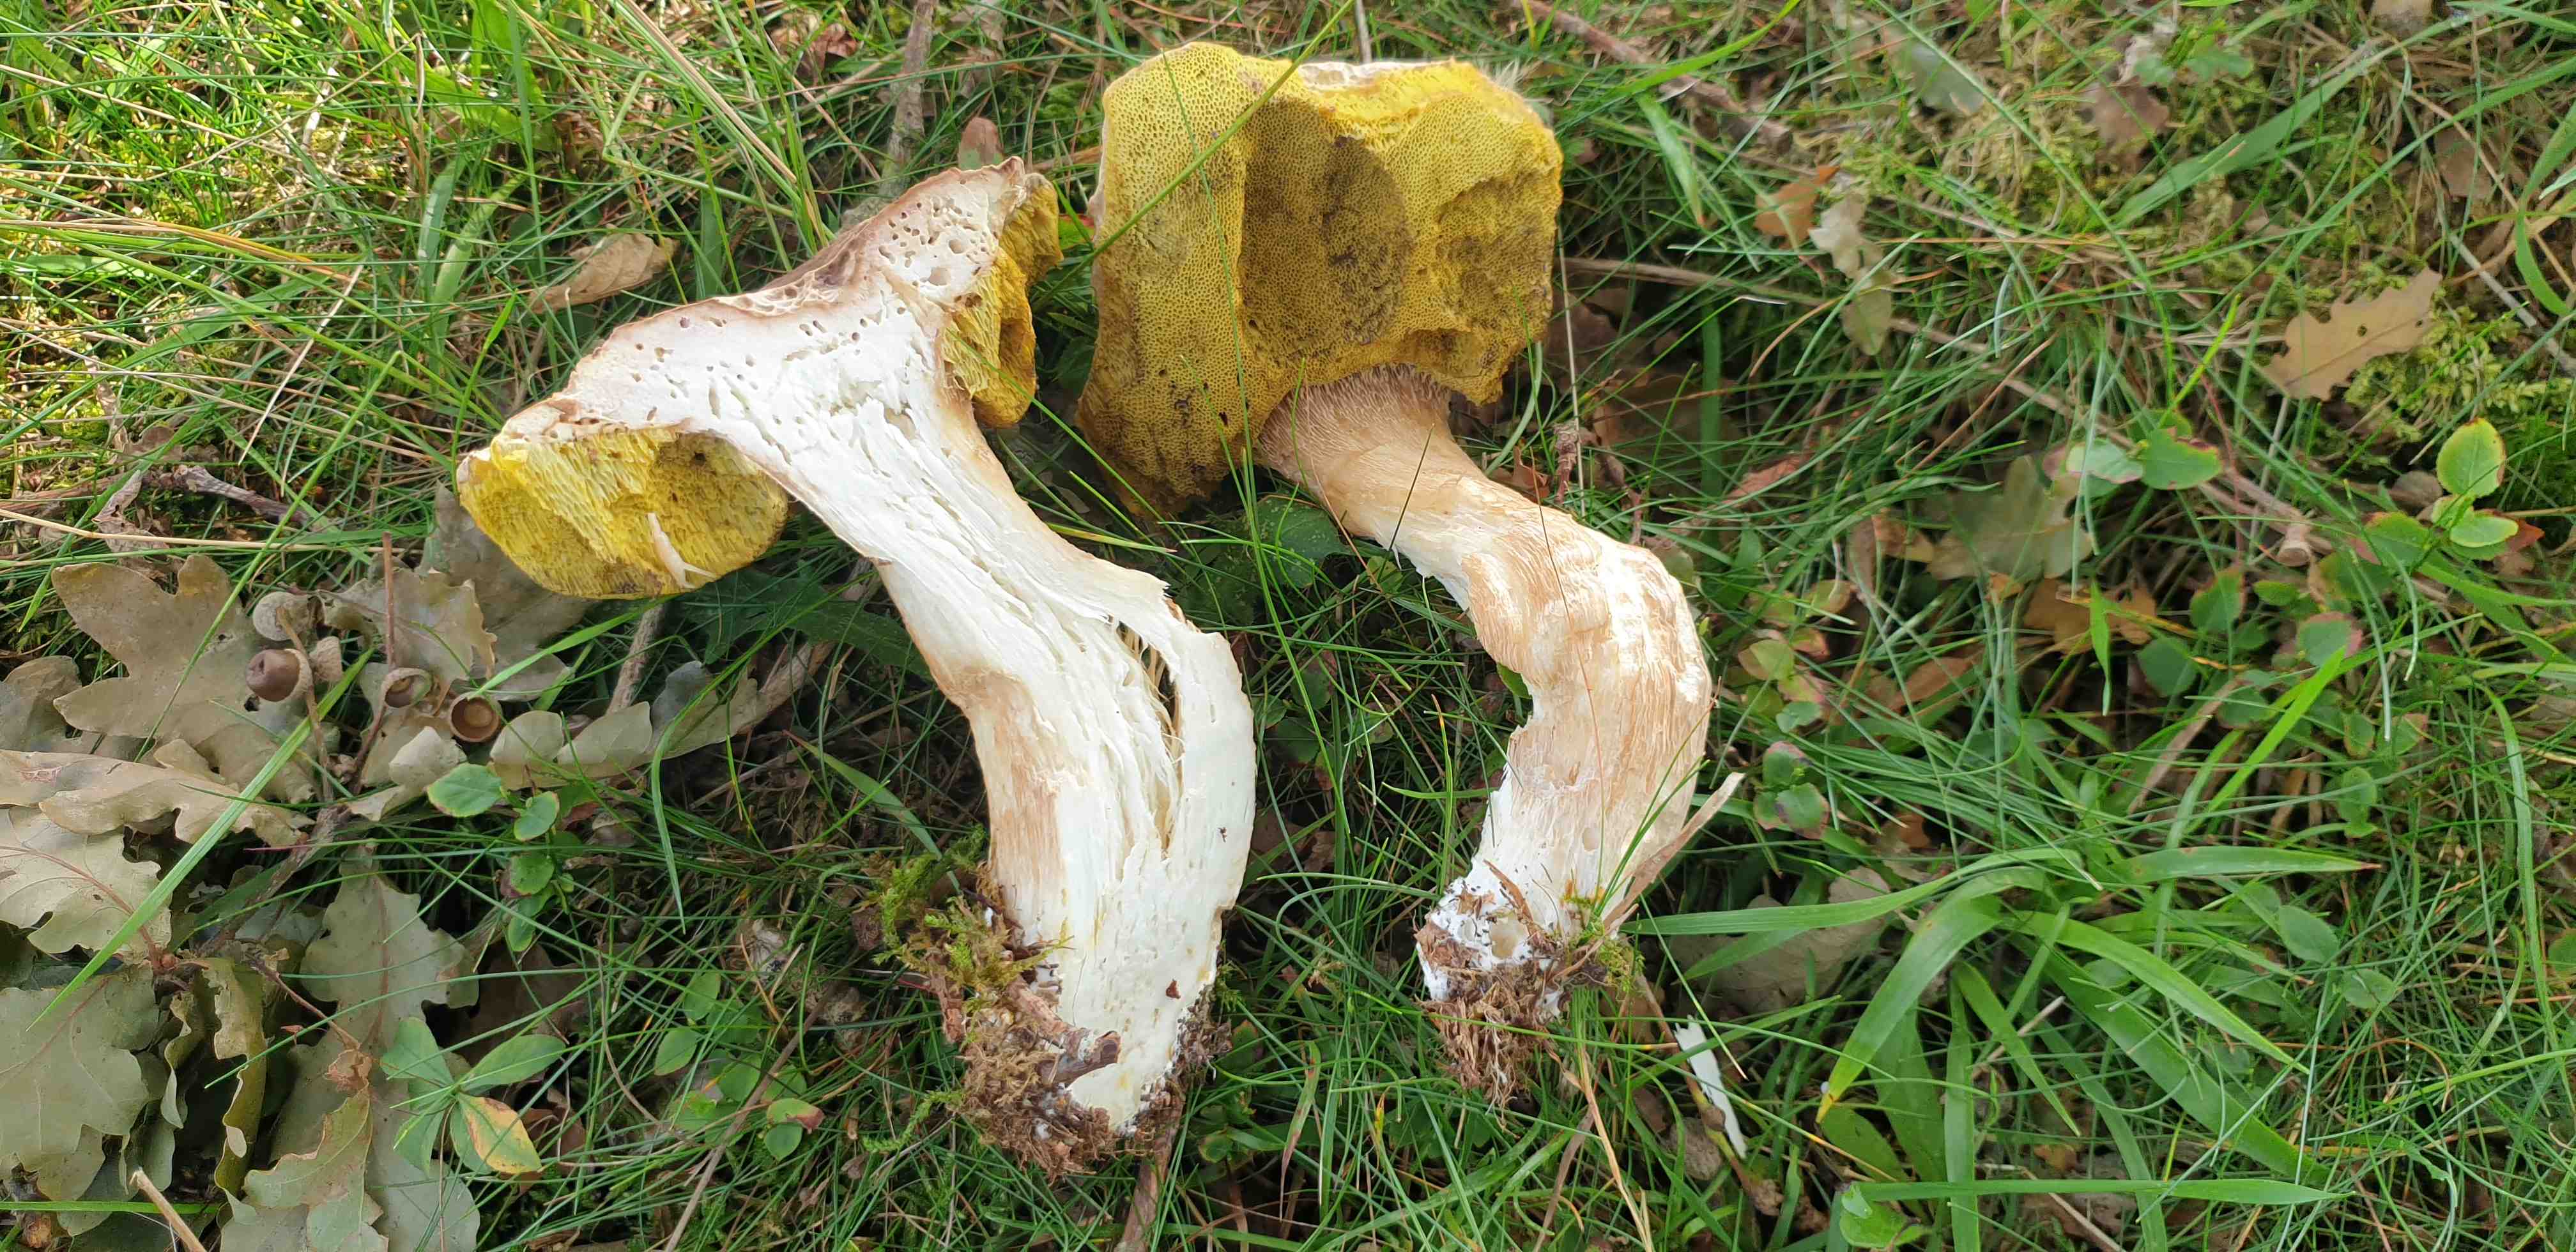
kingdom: Fungi
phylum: Basidiomycota
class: Agaricomycetes
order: Boletales
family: Boletaceae
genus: Boletus
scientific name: Boletus edulis
